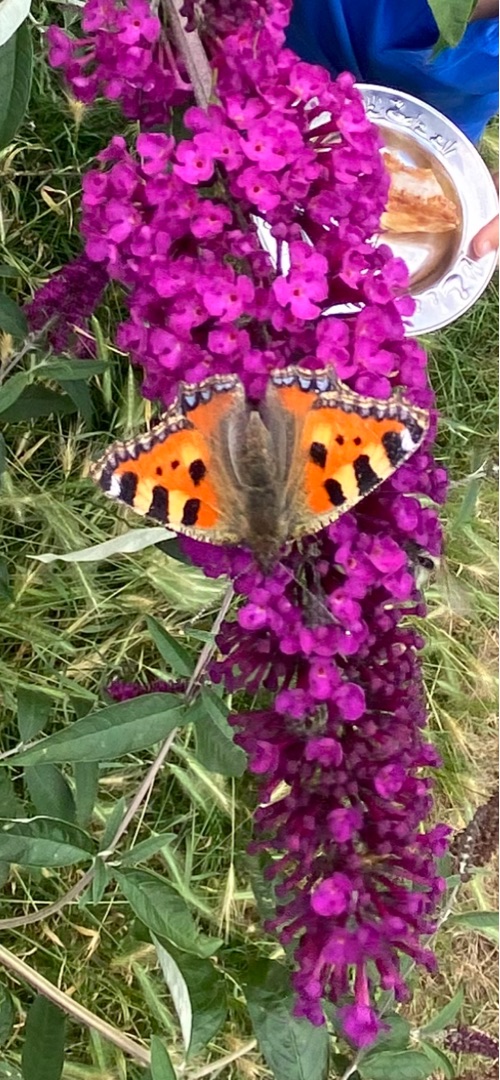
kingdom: Animalia
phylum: Arthropoda
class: Insecta
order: Lepidoptera
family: Nymphalidae
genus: Aglais
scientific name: Aglais urticae
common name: Nældens takvinge
